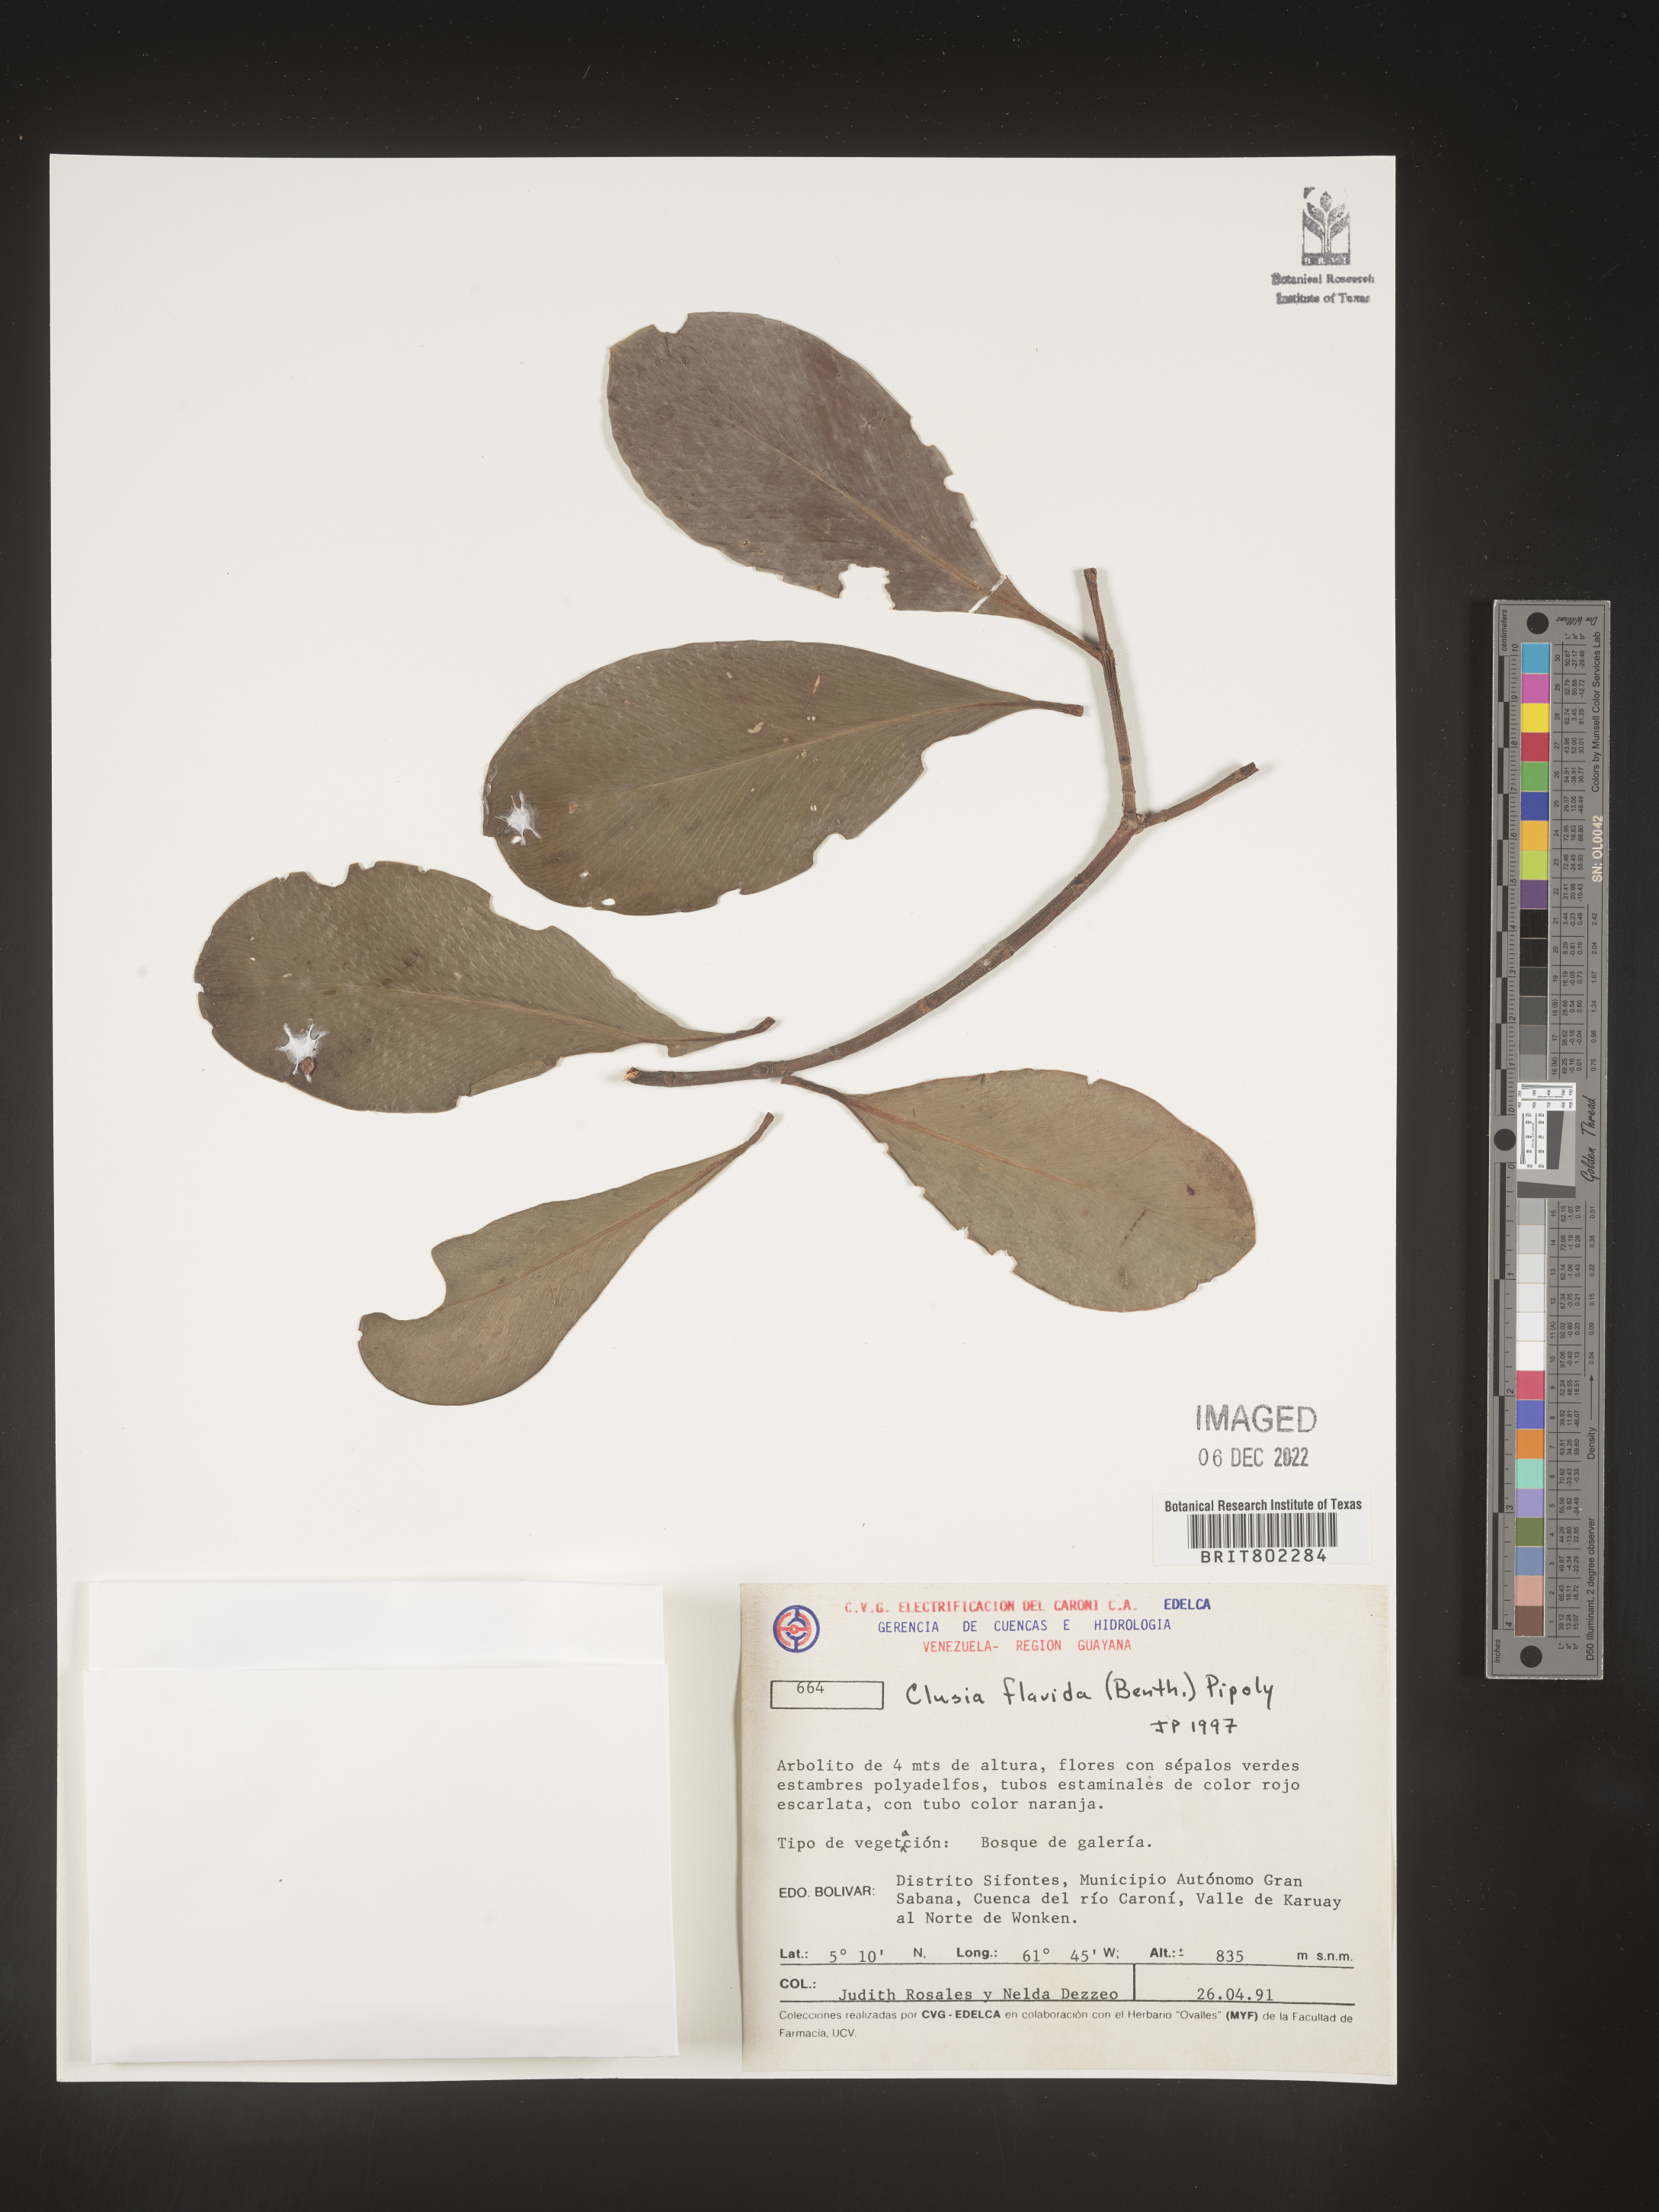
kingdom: Plantae
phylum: Tracheophyta
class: Magnoliopsida
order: Malpighiales
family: Clusiaceae
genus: Clusia
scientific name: Clusia flavida
